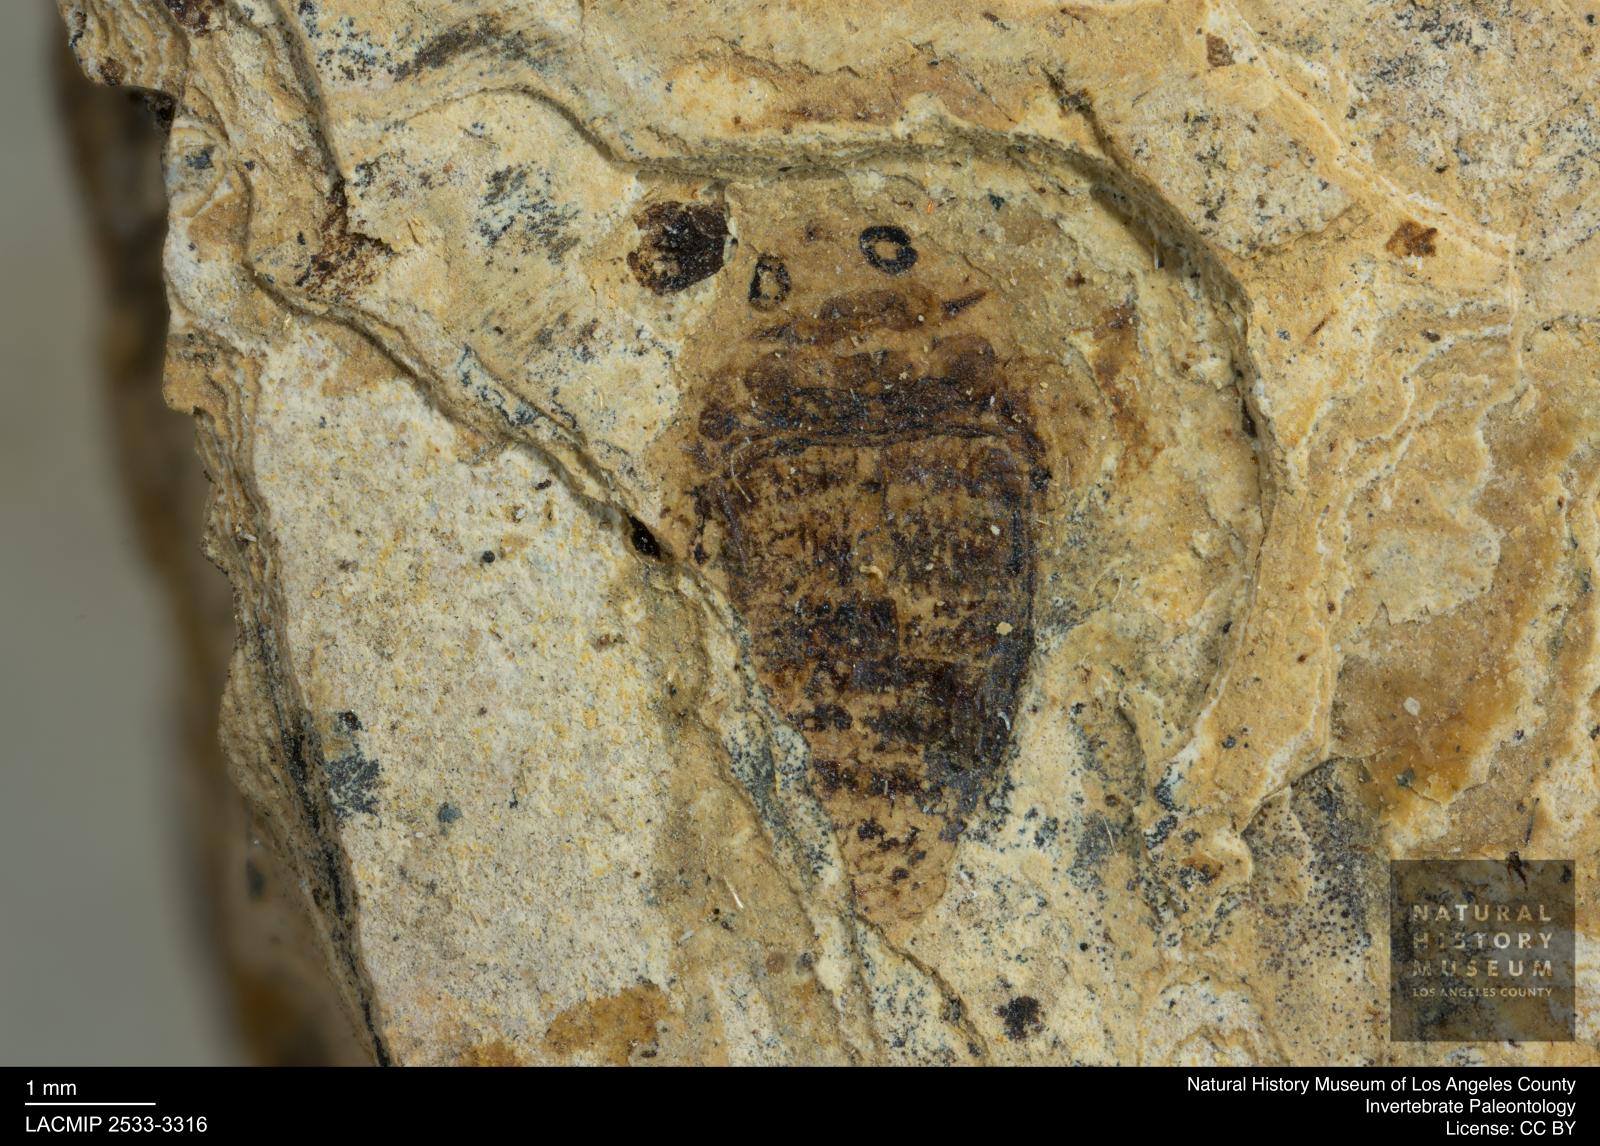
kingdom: Animalia
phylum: Arthropoda
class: Insecta
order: Coleoptera
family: Dytiscidae
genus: Laccophilus
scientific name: Laccophilus Palaeogyrinus strigatus
